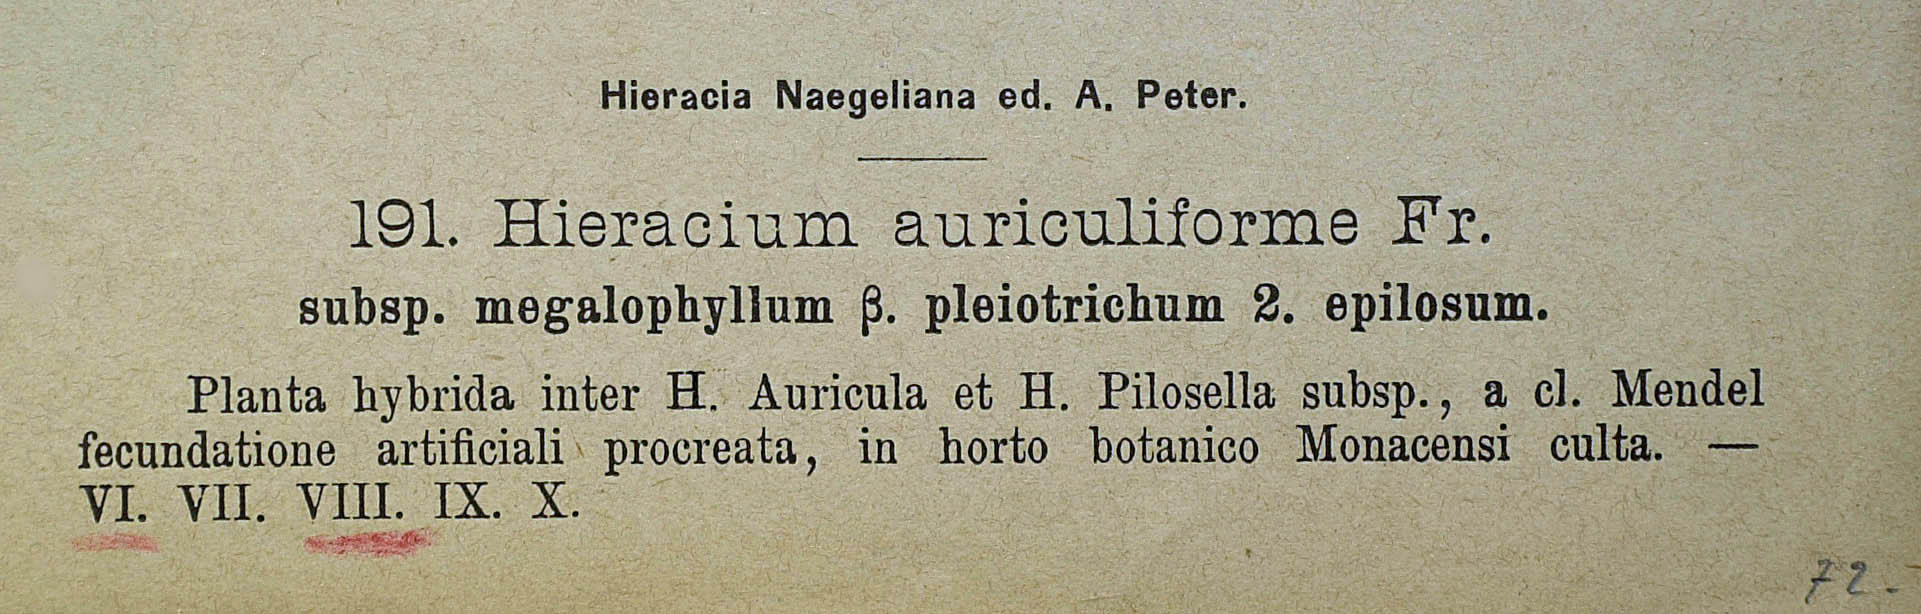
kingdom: Plantae
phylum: Tracheophyta
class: Magnoliopsida
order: Asterales
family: Asteraceae
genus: Pilosella
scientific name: Pilosella schultesii
